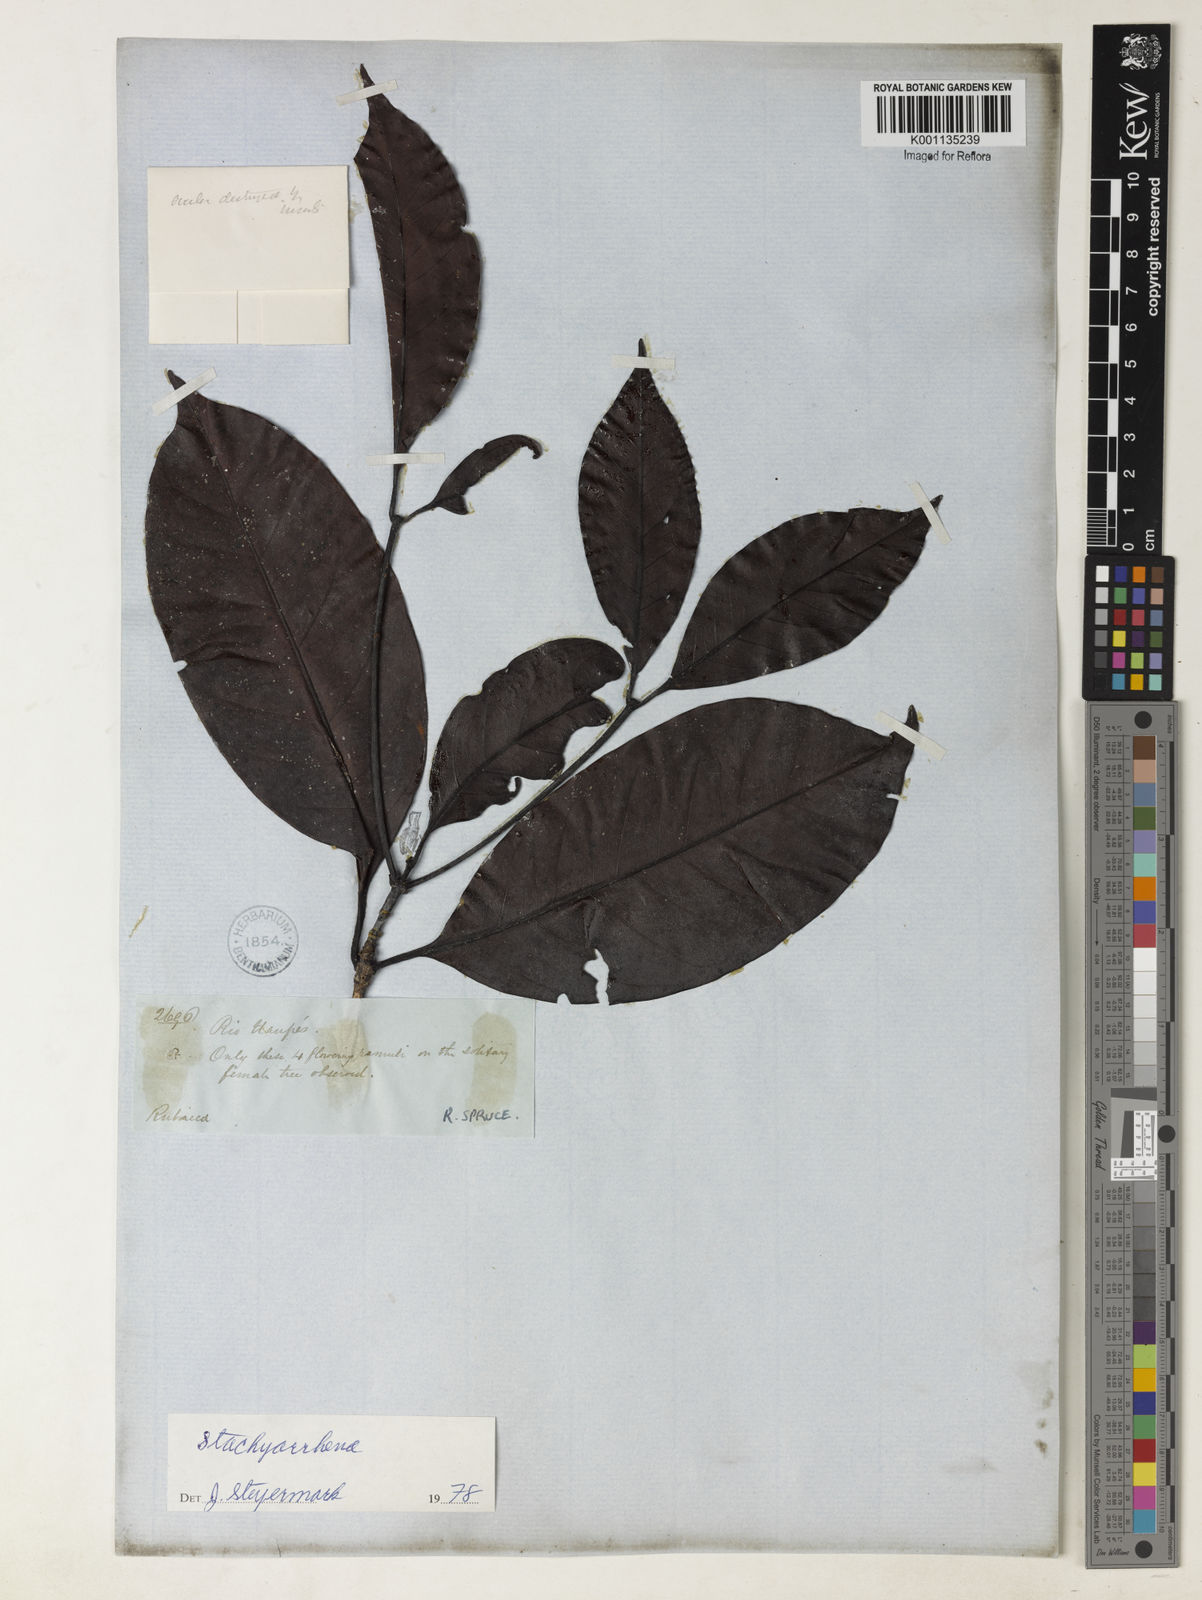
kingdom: Plantae
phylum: Tracheophyta
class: Magnoliopsida
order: Gentianales
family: Rubiaceae
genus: Stachyarrhena
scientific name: Stachyarrhena
